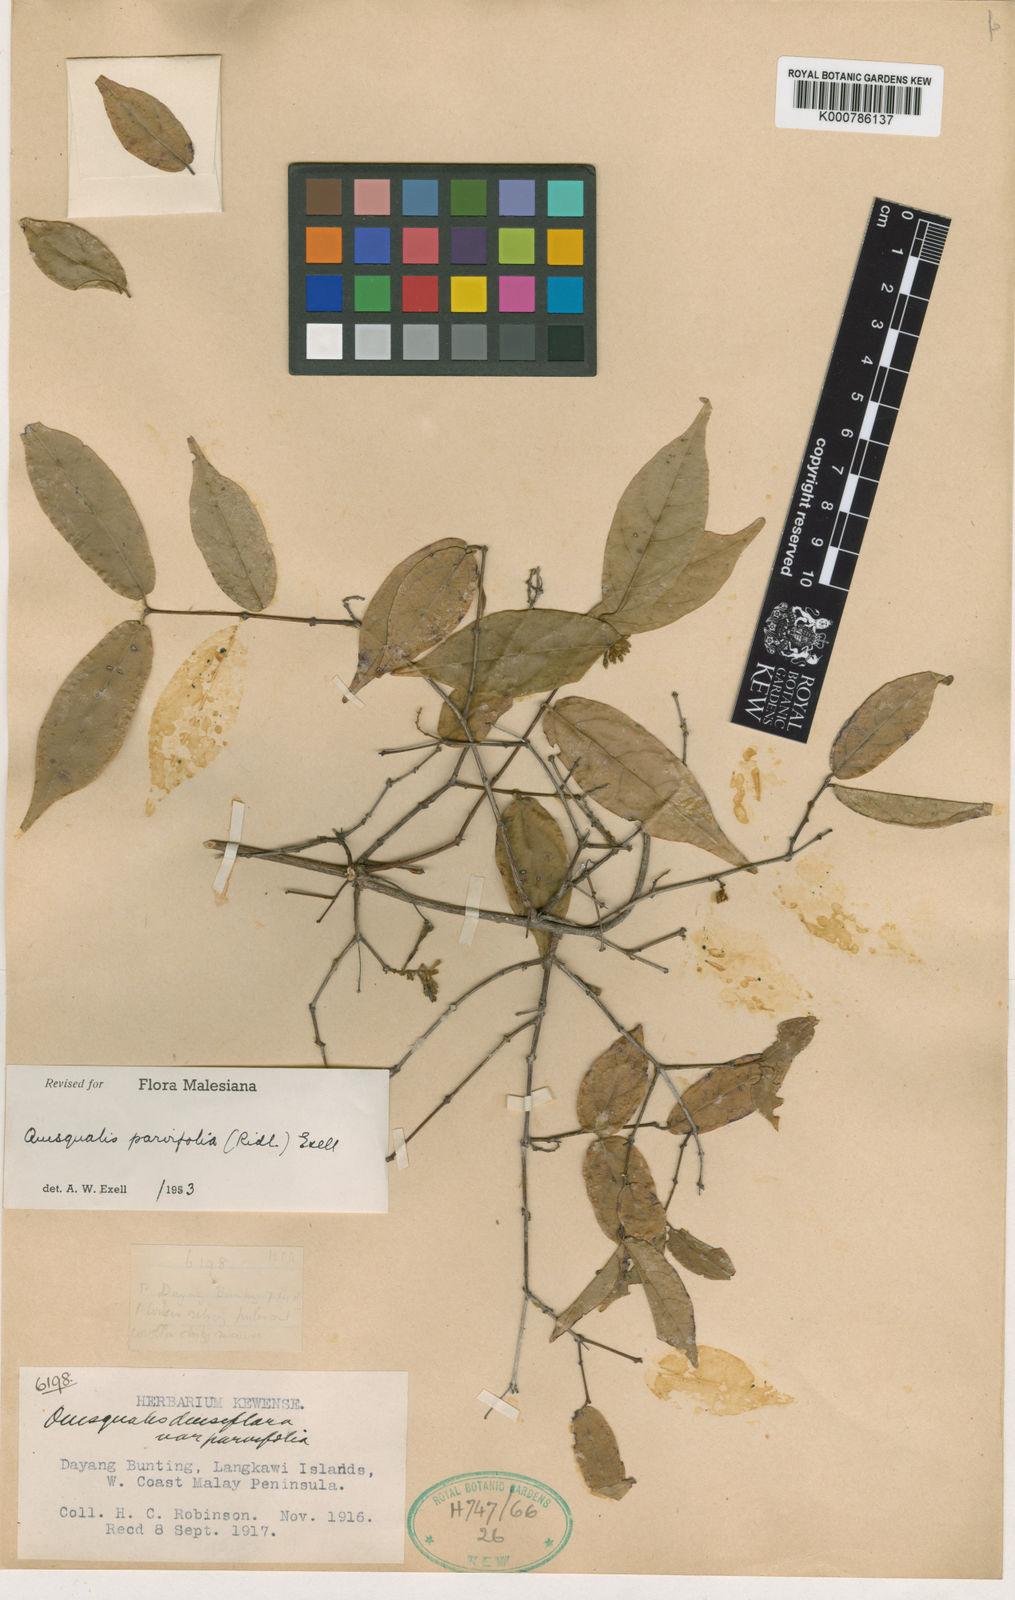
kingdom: Plantae
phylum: Tracheophyta
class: Magnoliopsida
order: Myrtales
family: Combretaceae
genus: Combretum
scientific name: Combretum langkawiense
